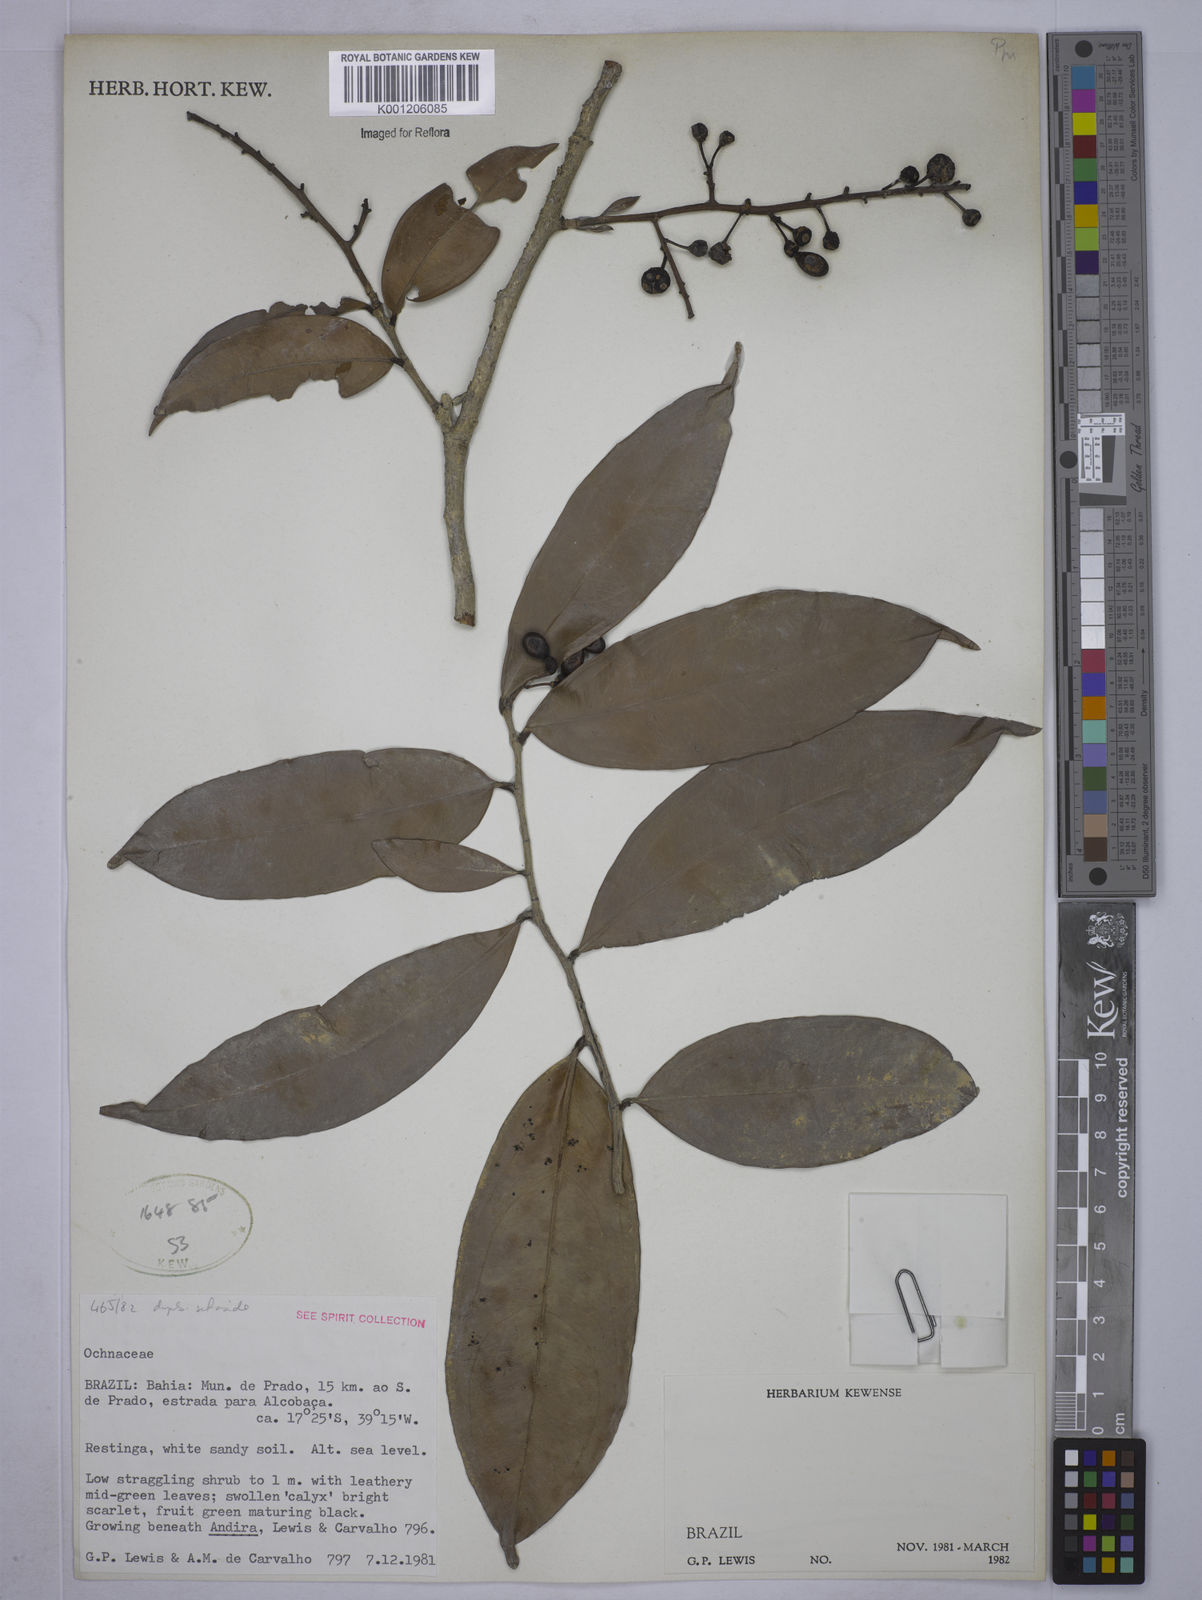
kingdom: Plantae
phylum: Tracheophyta
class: Magnoliopsida
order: Malpighiales
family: Ochnaceae
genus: Ouratea
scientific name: Ouratea bahiensis
